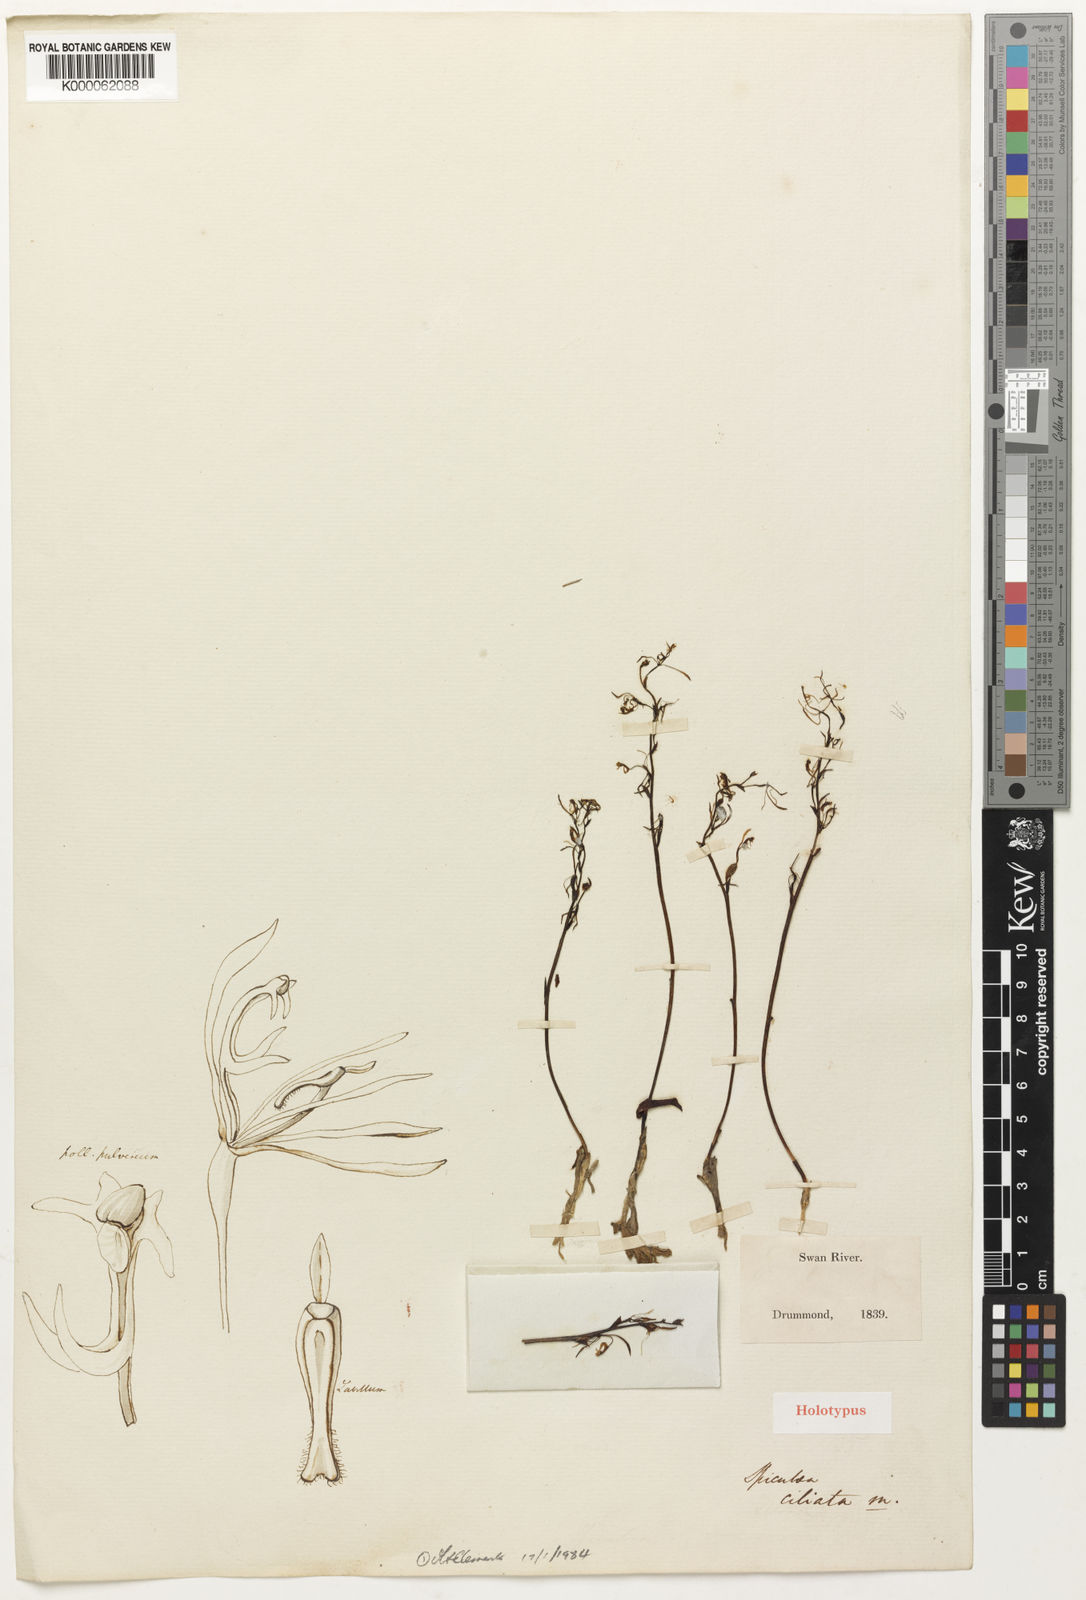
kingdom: Plantae
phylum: Tracheophyta
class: Liliopsida
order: Asparagales
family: Orchidaceae
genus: Spiculaea
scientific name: Spiculaea ciliata
